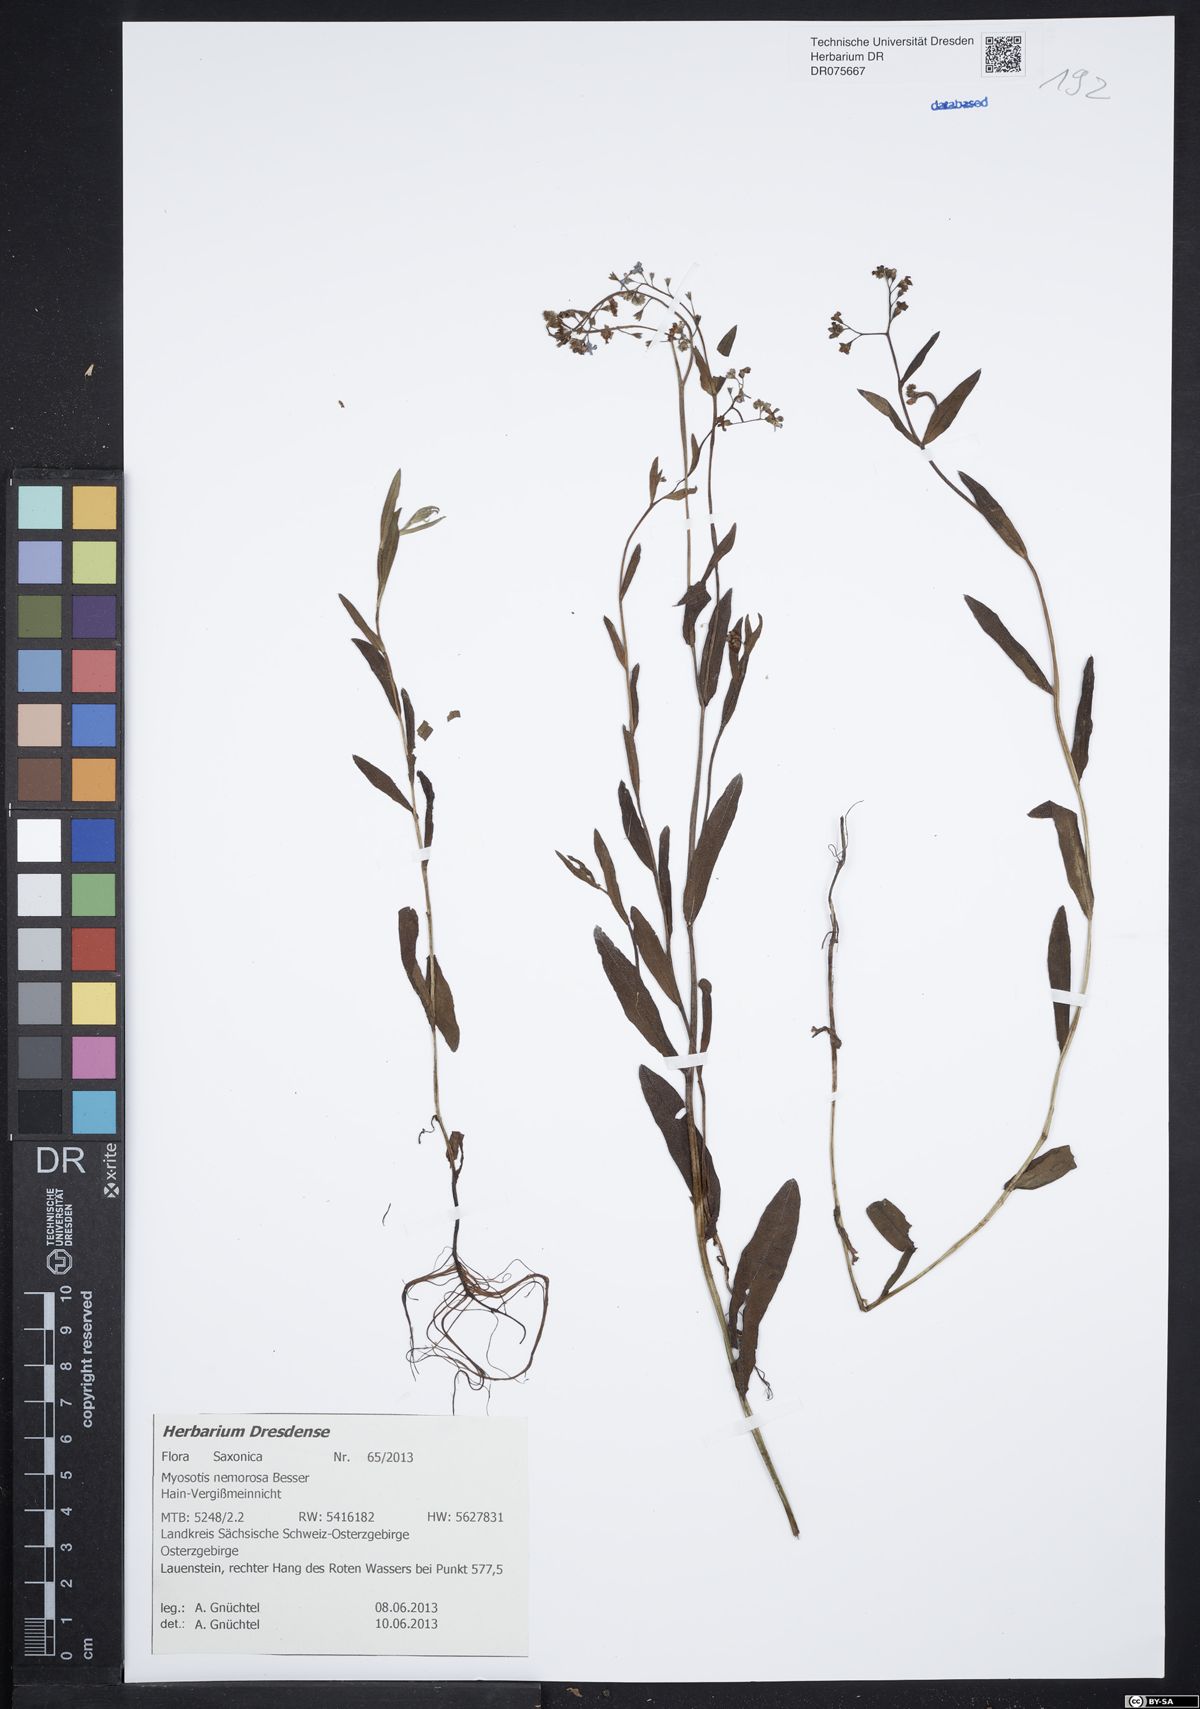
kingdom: Plantae
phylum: Tracheophyta
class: Magnoliopsida
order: Boraginales
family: Boraginaceae
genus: Myosotis
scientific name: Myosotis nemorosa
